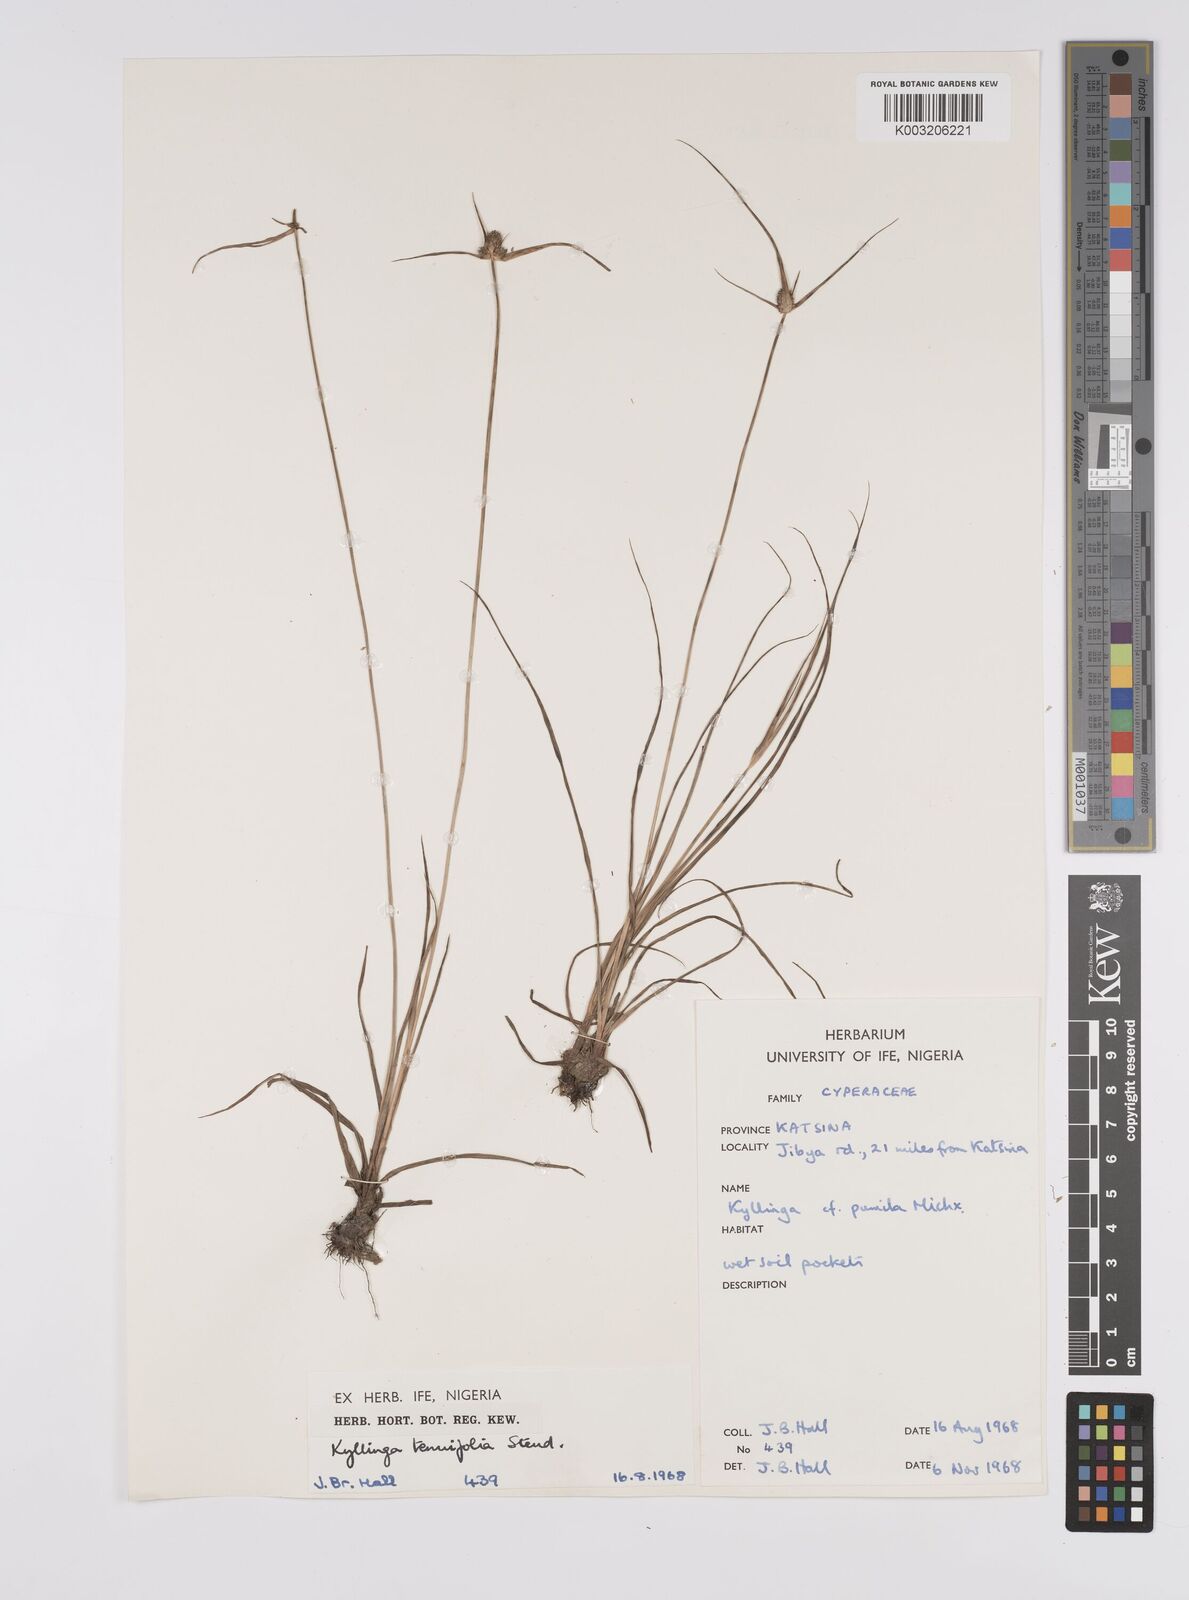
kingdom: Plantae
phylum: Tracheophyta
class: Liliopsida
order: Poales
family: Cyperaceae
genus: Cyperus
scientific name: Cyperus
